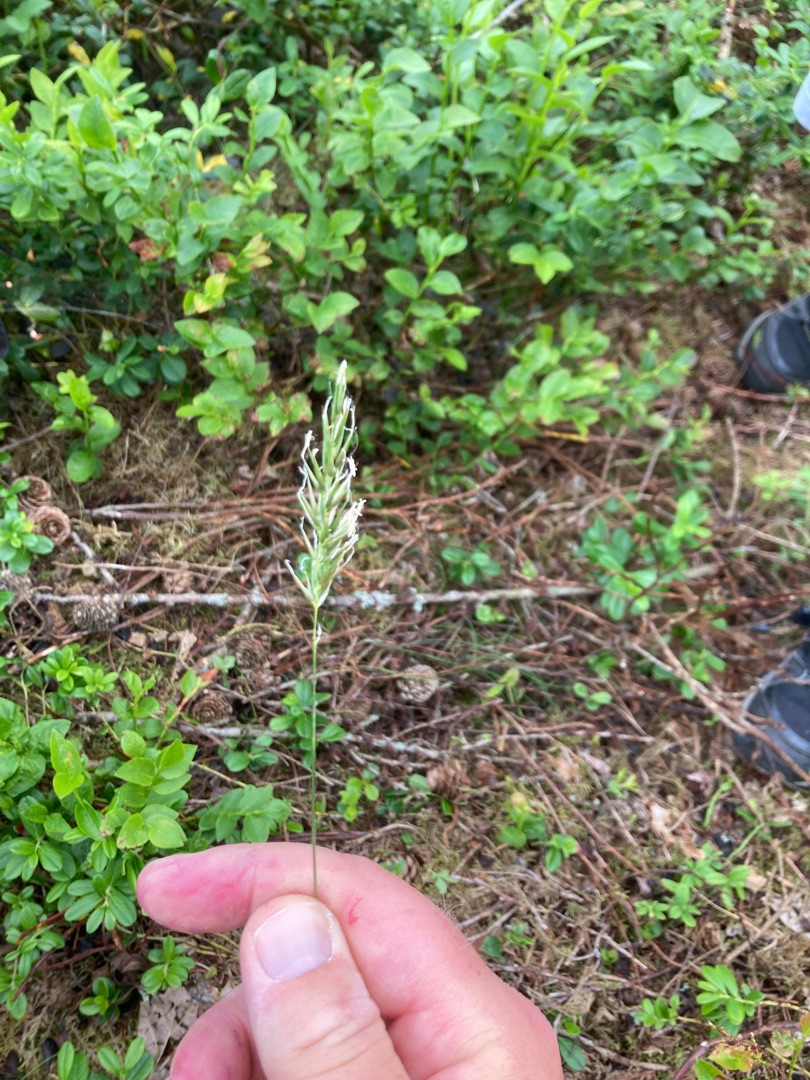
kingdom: Plantae
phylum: Tracheophyta
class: Liliopsida
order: Poales
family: Poaceae
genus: Anthoxanthum
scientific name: Anthoxanthum odoratum
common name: Vellugtende gulaks
